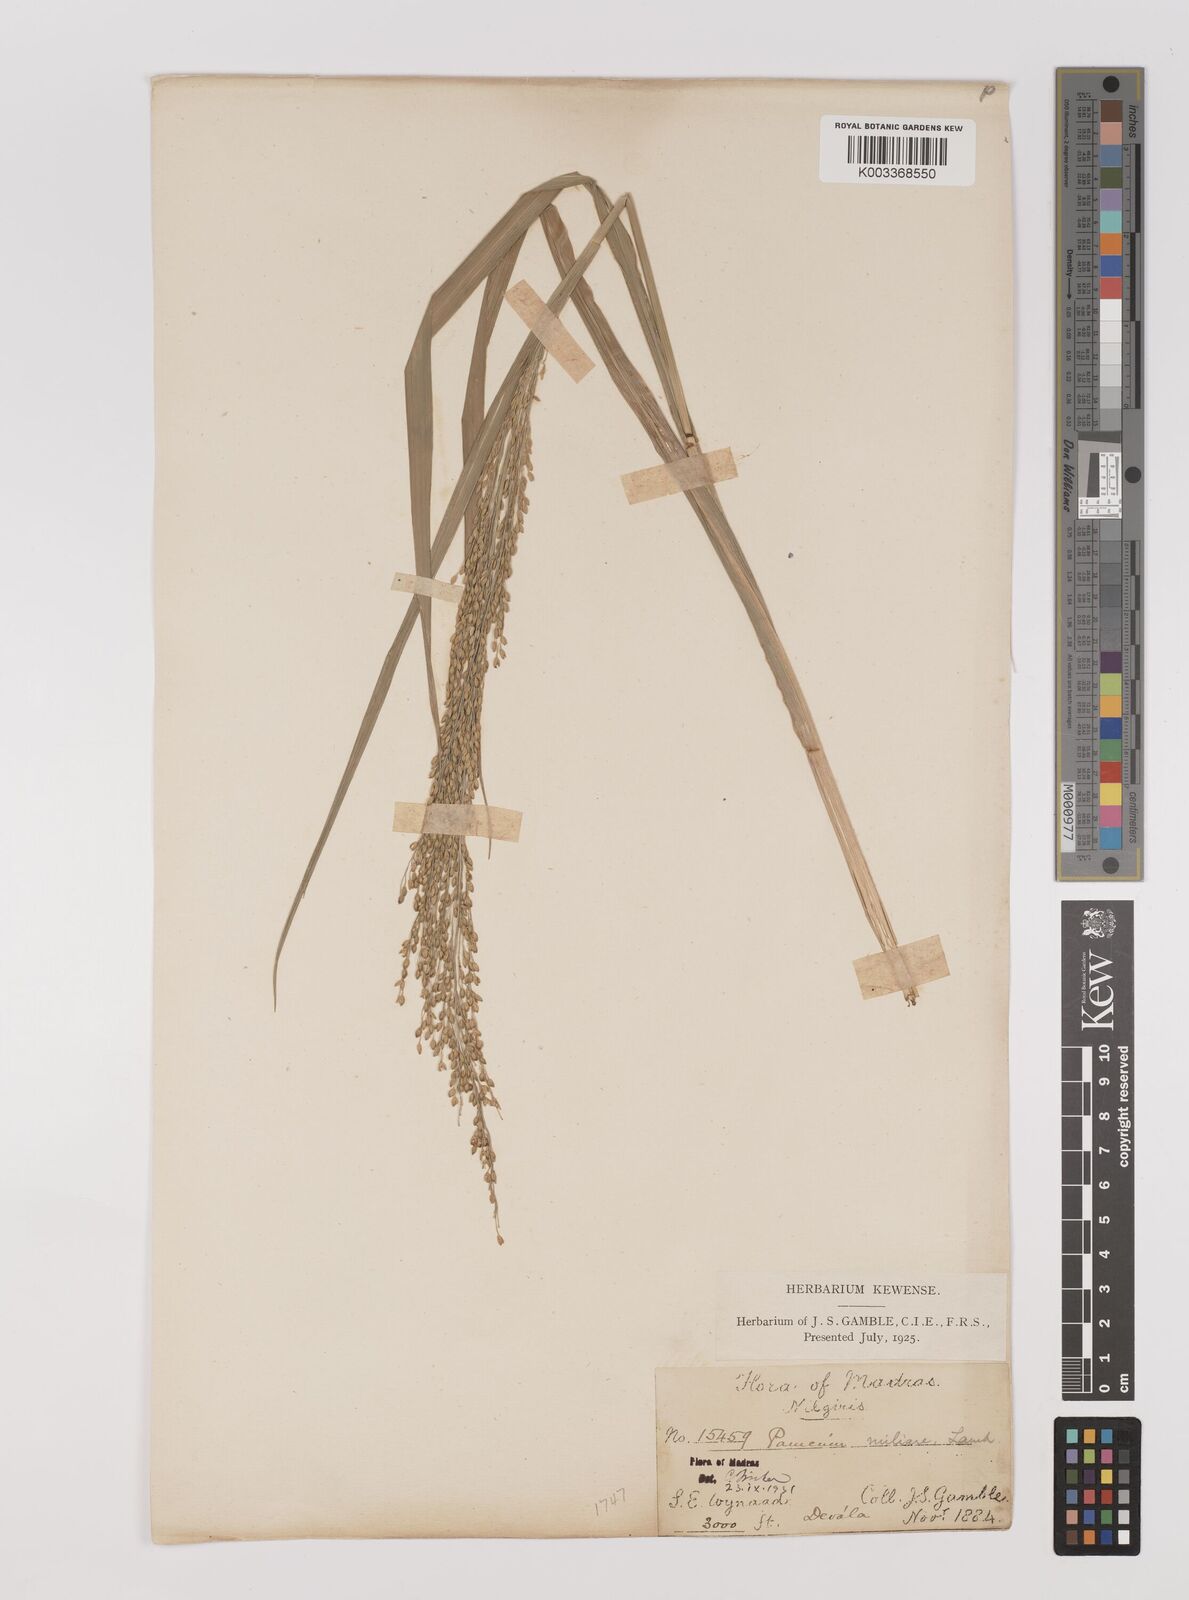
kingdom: Plantae
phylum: Tracheophyta
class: Liliopsida
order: Poales
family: Poaceae
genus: Panicum
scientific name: Panicum sumatrense
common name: Little millet
